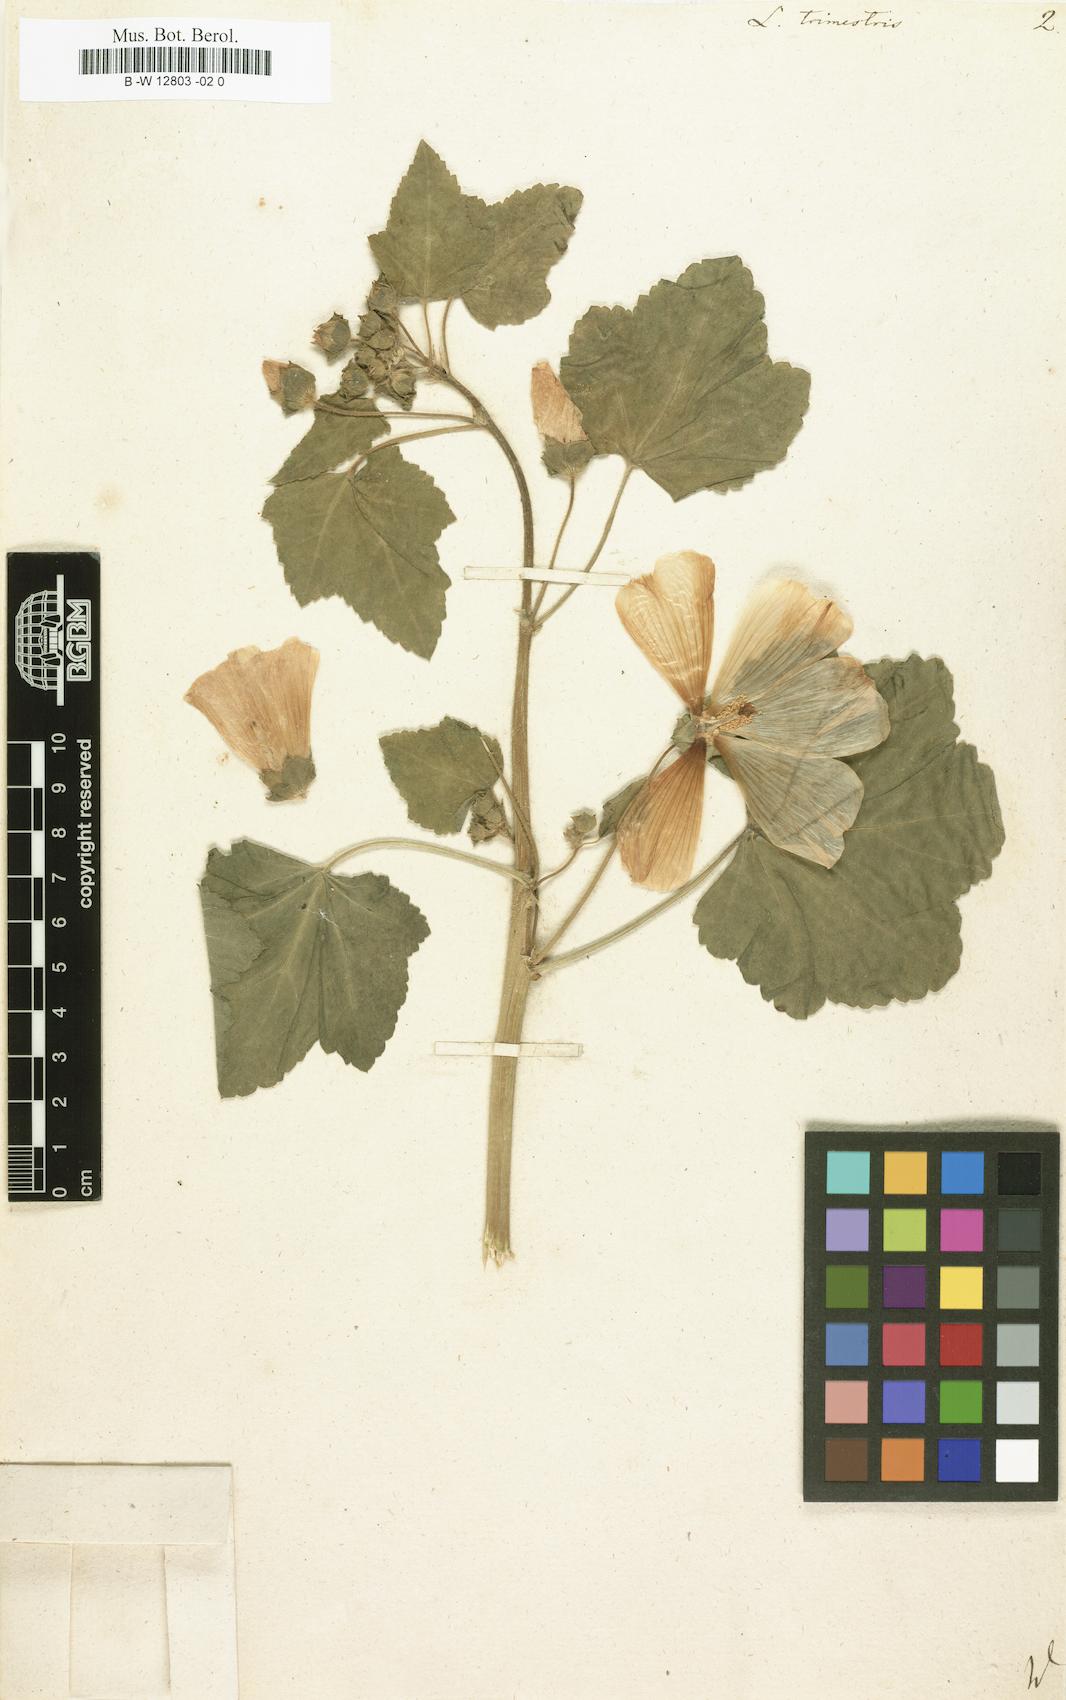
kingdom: Plantae
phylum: Tracheophyta
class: Magnoliopsida
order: Malvales
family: Malvaceae
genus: Malva
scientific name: Malva trimestris
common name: Royal mallow
